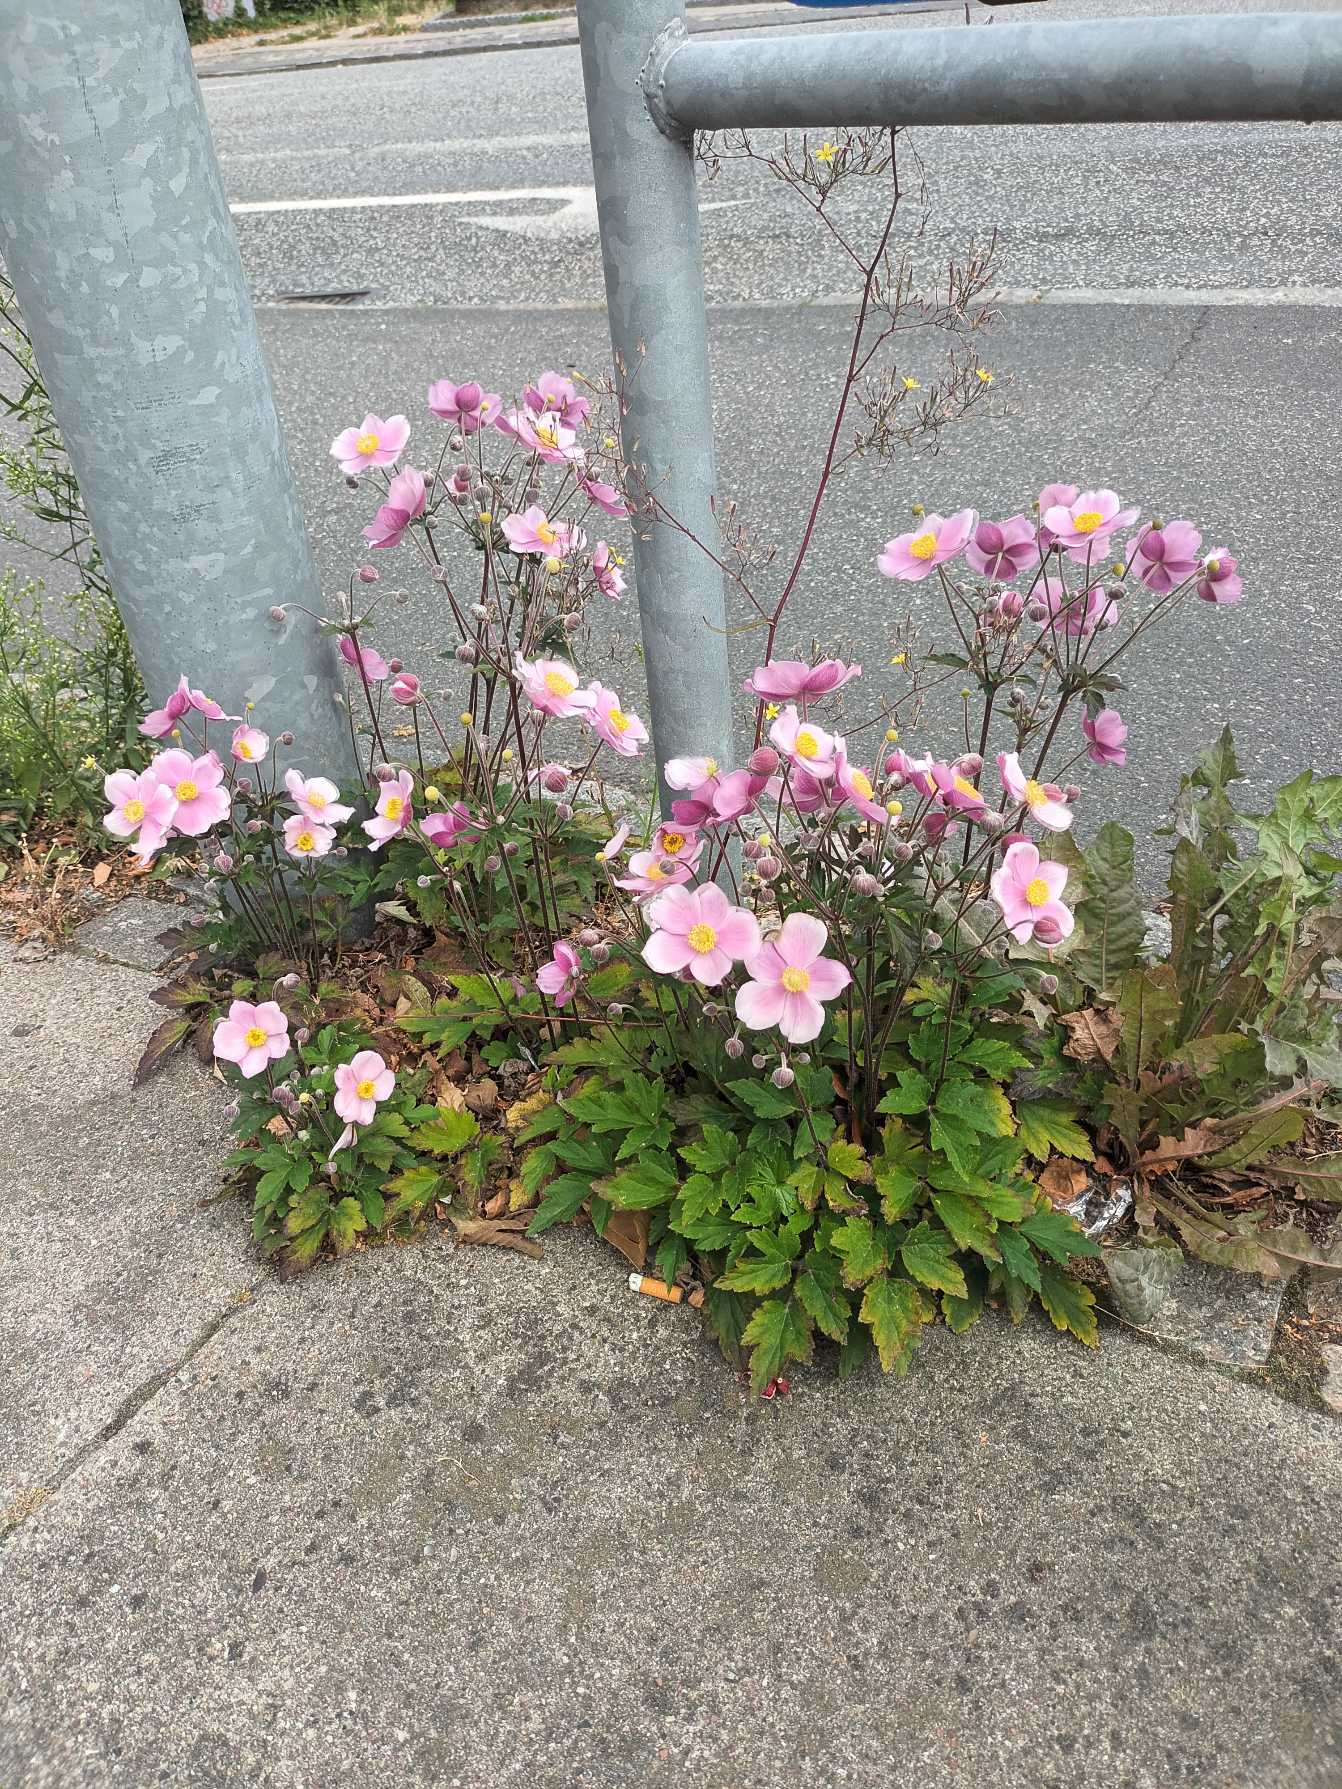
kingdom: Plantae
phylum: Tracheophyta
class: Magnoliopsida
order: Ranunculales
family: Ranunculaceae
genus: Eriocapitella
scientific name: Eriocapitella hupehensis
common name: Høst-anemone
